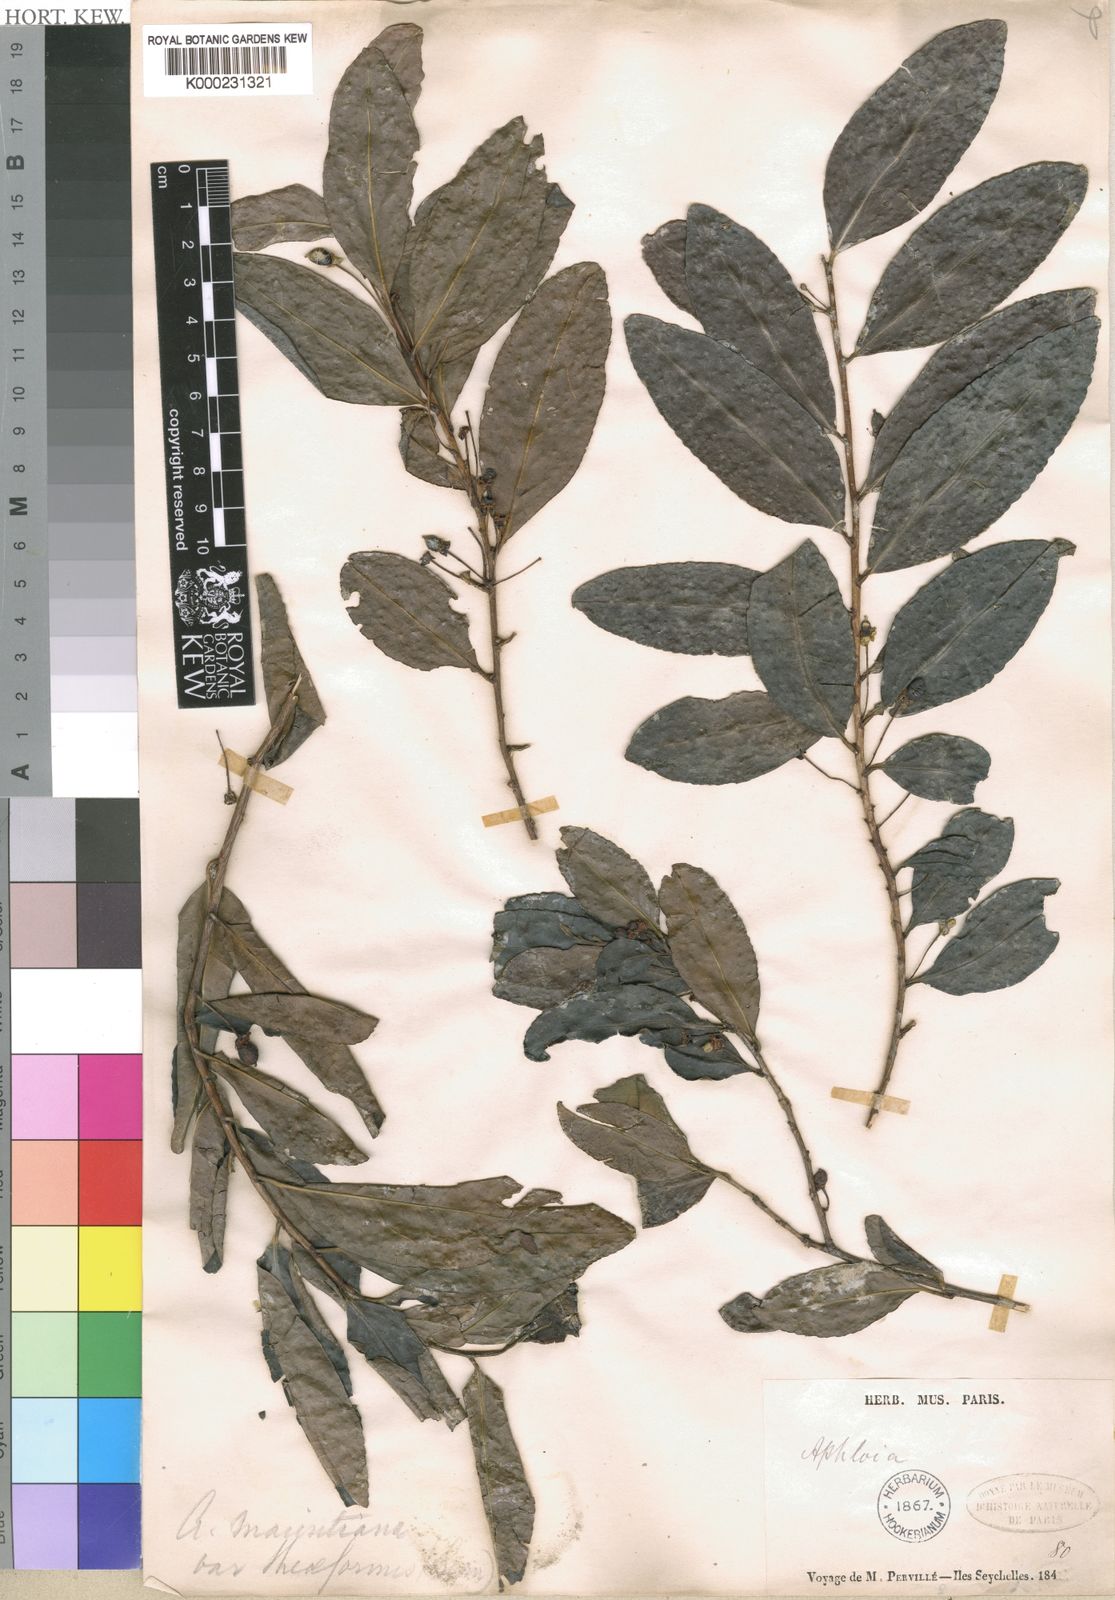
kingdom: Plantae
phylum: Tracheophyta
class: Magnoliopsida
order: Malpighiales
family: Salicaceae
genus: Ludia
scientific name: Ludia
